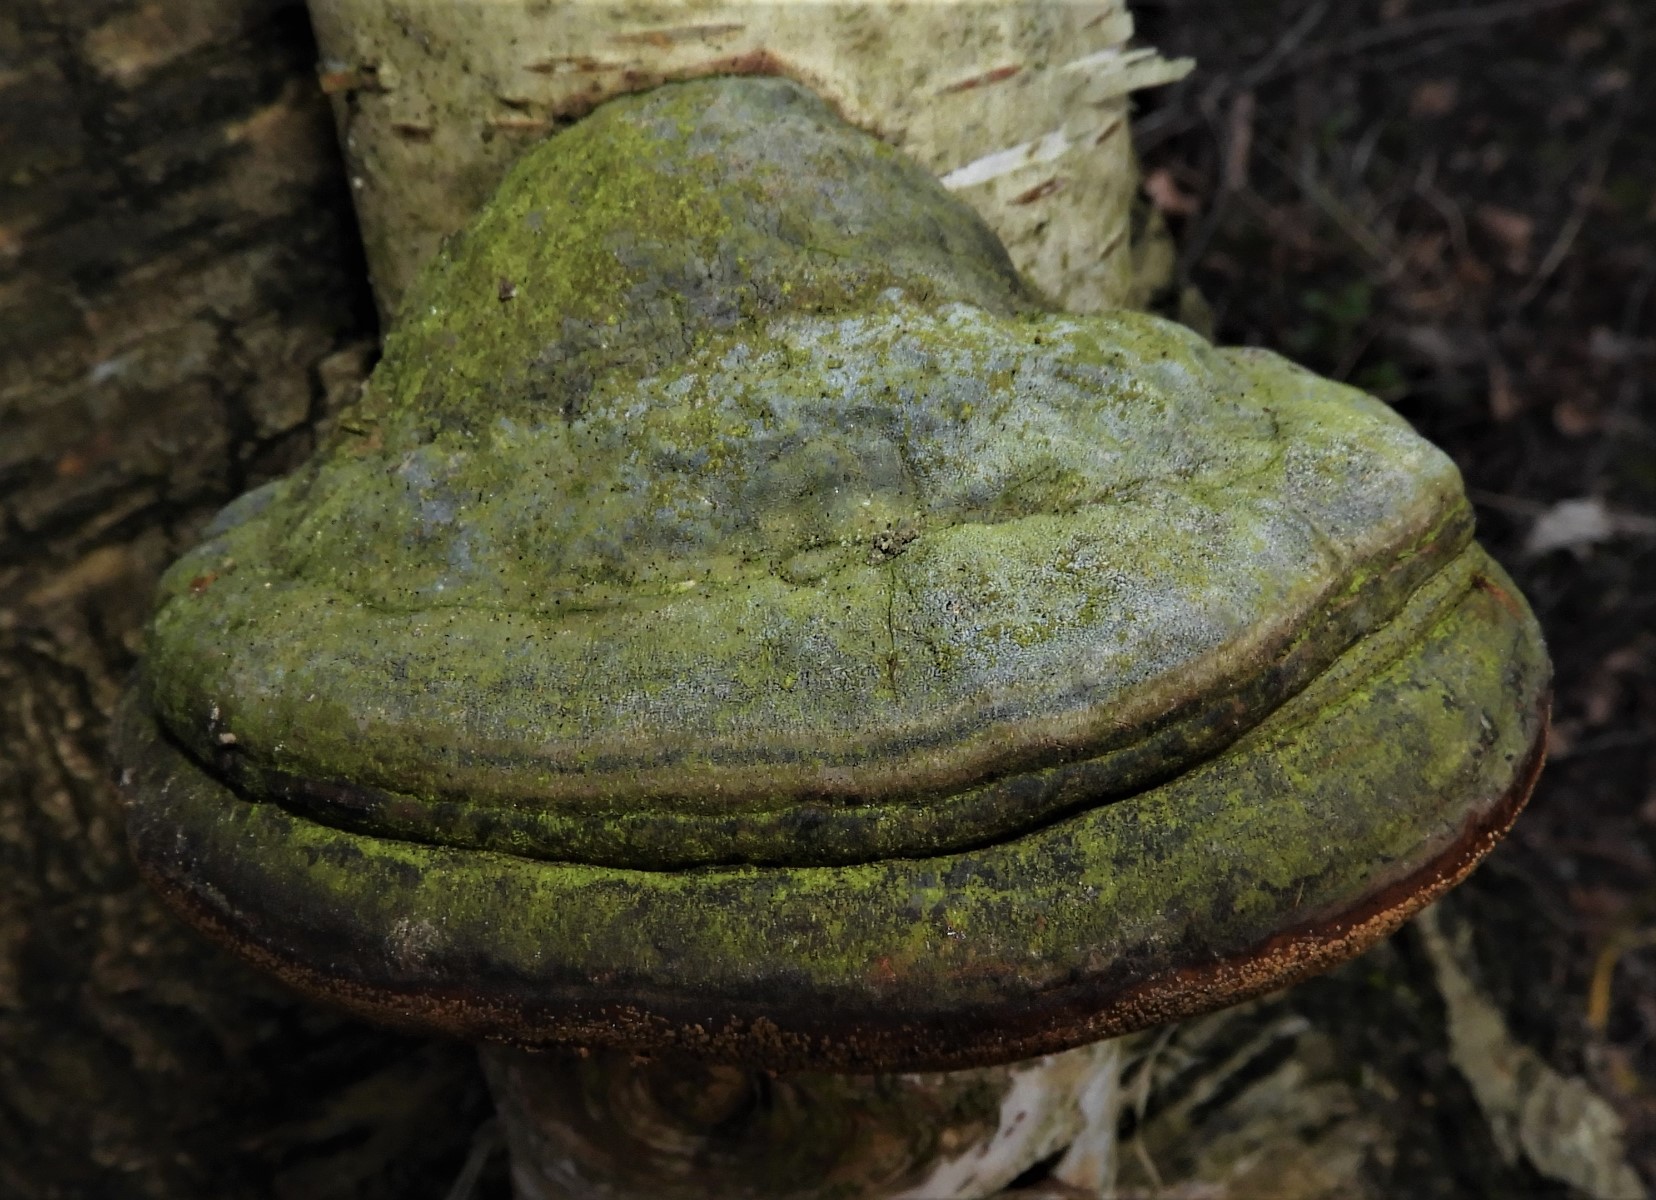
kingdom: Fungi
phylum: Basidiomycota
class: Agaricomycetes
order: Polyporales
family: Polyporaceae
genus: Fomes
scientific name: Fomes fomentarius
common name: tøndersvamp
